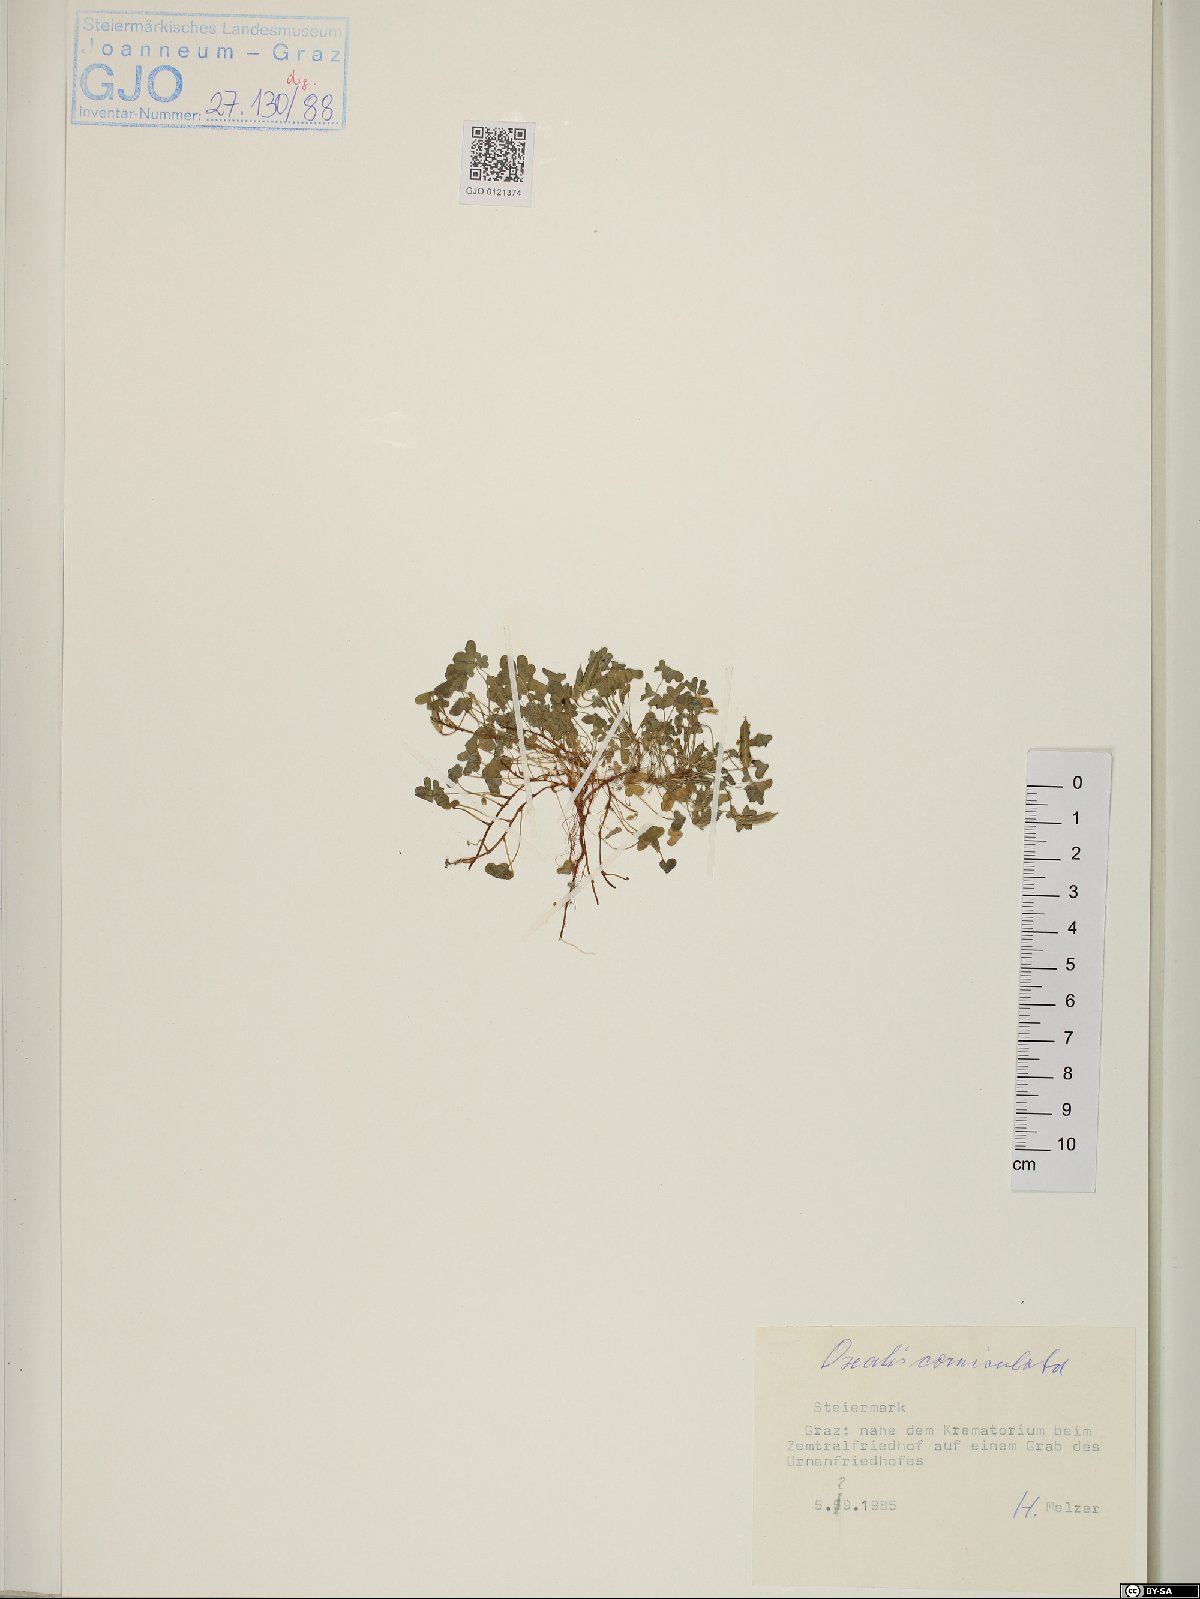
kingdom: Plantae
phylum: Tracheophyta
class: Magnoliopsida
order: Oxalidales
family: Oxalidaceae
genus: Oxalis
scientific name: Oxalis corniculata
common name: Procumbent yellow-sorrel
